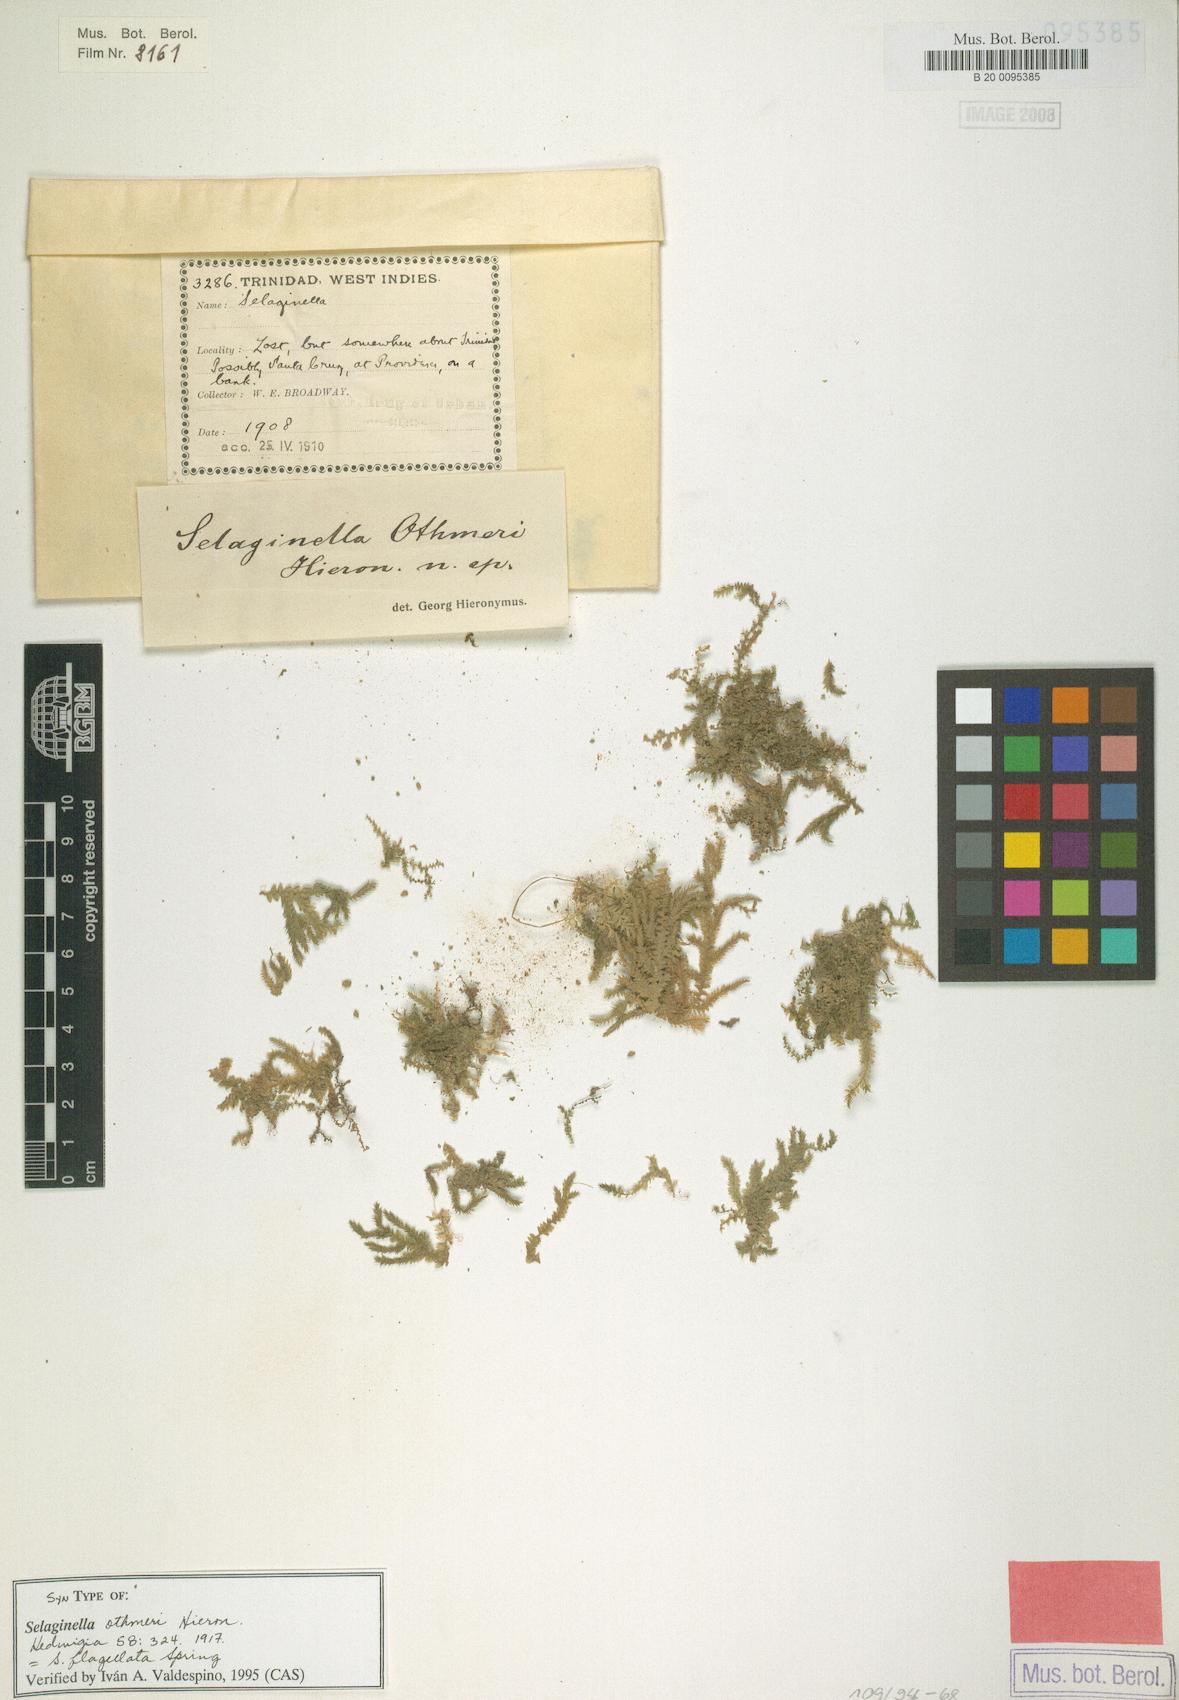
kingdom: Plantae
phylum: Tracheophyta
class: Lycopodiopsida
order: Selaginellales
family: Selaginellaceae
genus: Selaginella
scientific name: Selaginella flagellata
